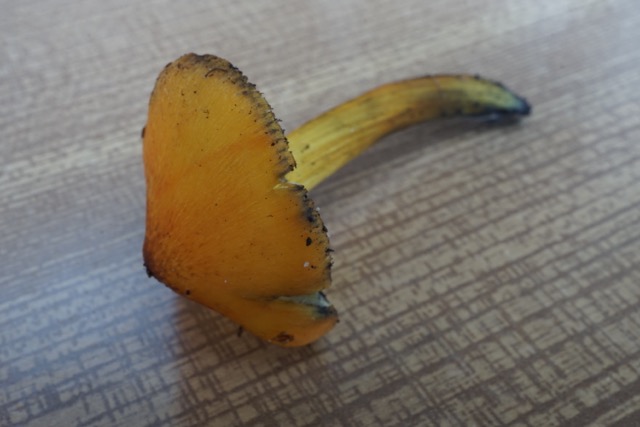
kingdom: Fungi
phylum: Basidiomycota
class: Agaricomycetes
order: Agaricales
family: Hygrophoraceae
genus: Hygrocybe
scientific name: Hygrocybe conica
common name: kegle-vokshat
